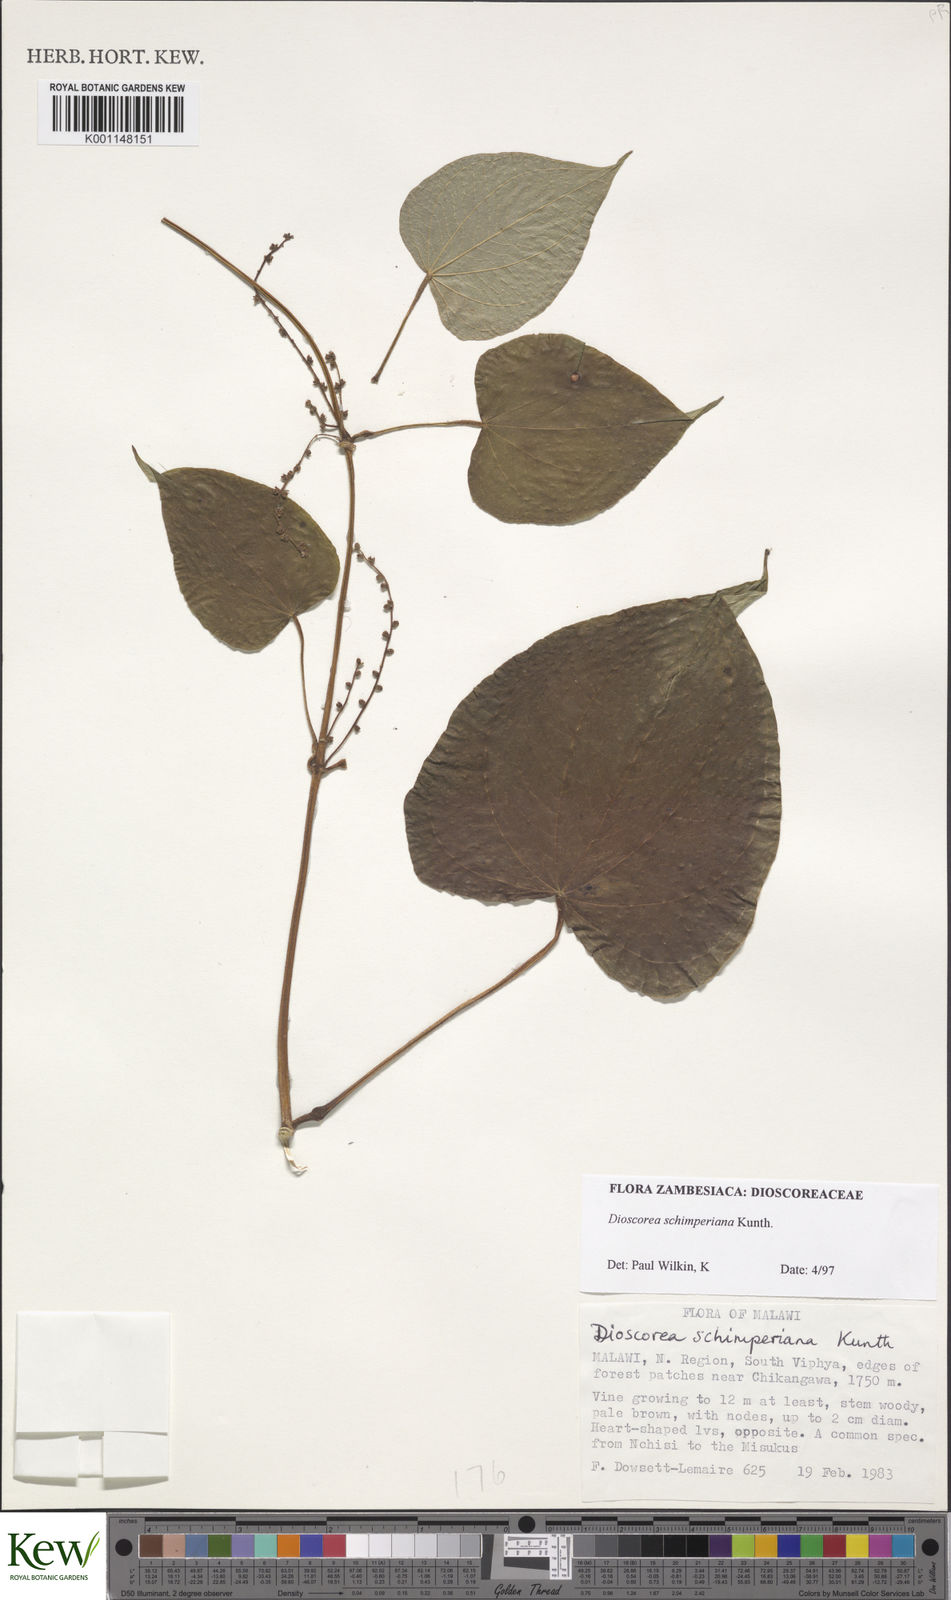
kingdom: Plantae
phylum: Tracheophyta
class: Liliopsida
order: Dioscoreales
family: Dioscoreaceae
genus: Dioscorea
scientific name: Dioscorea schimperiana
